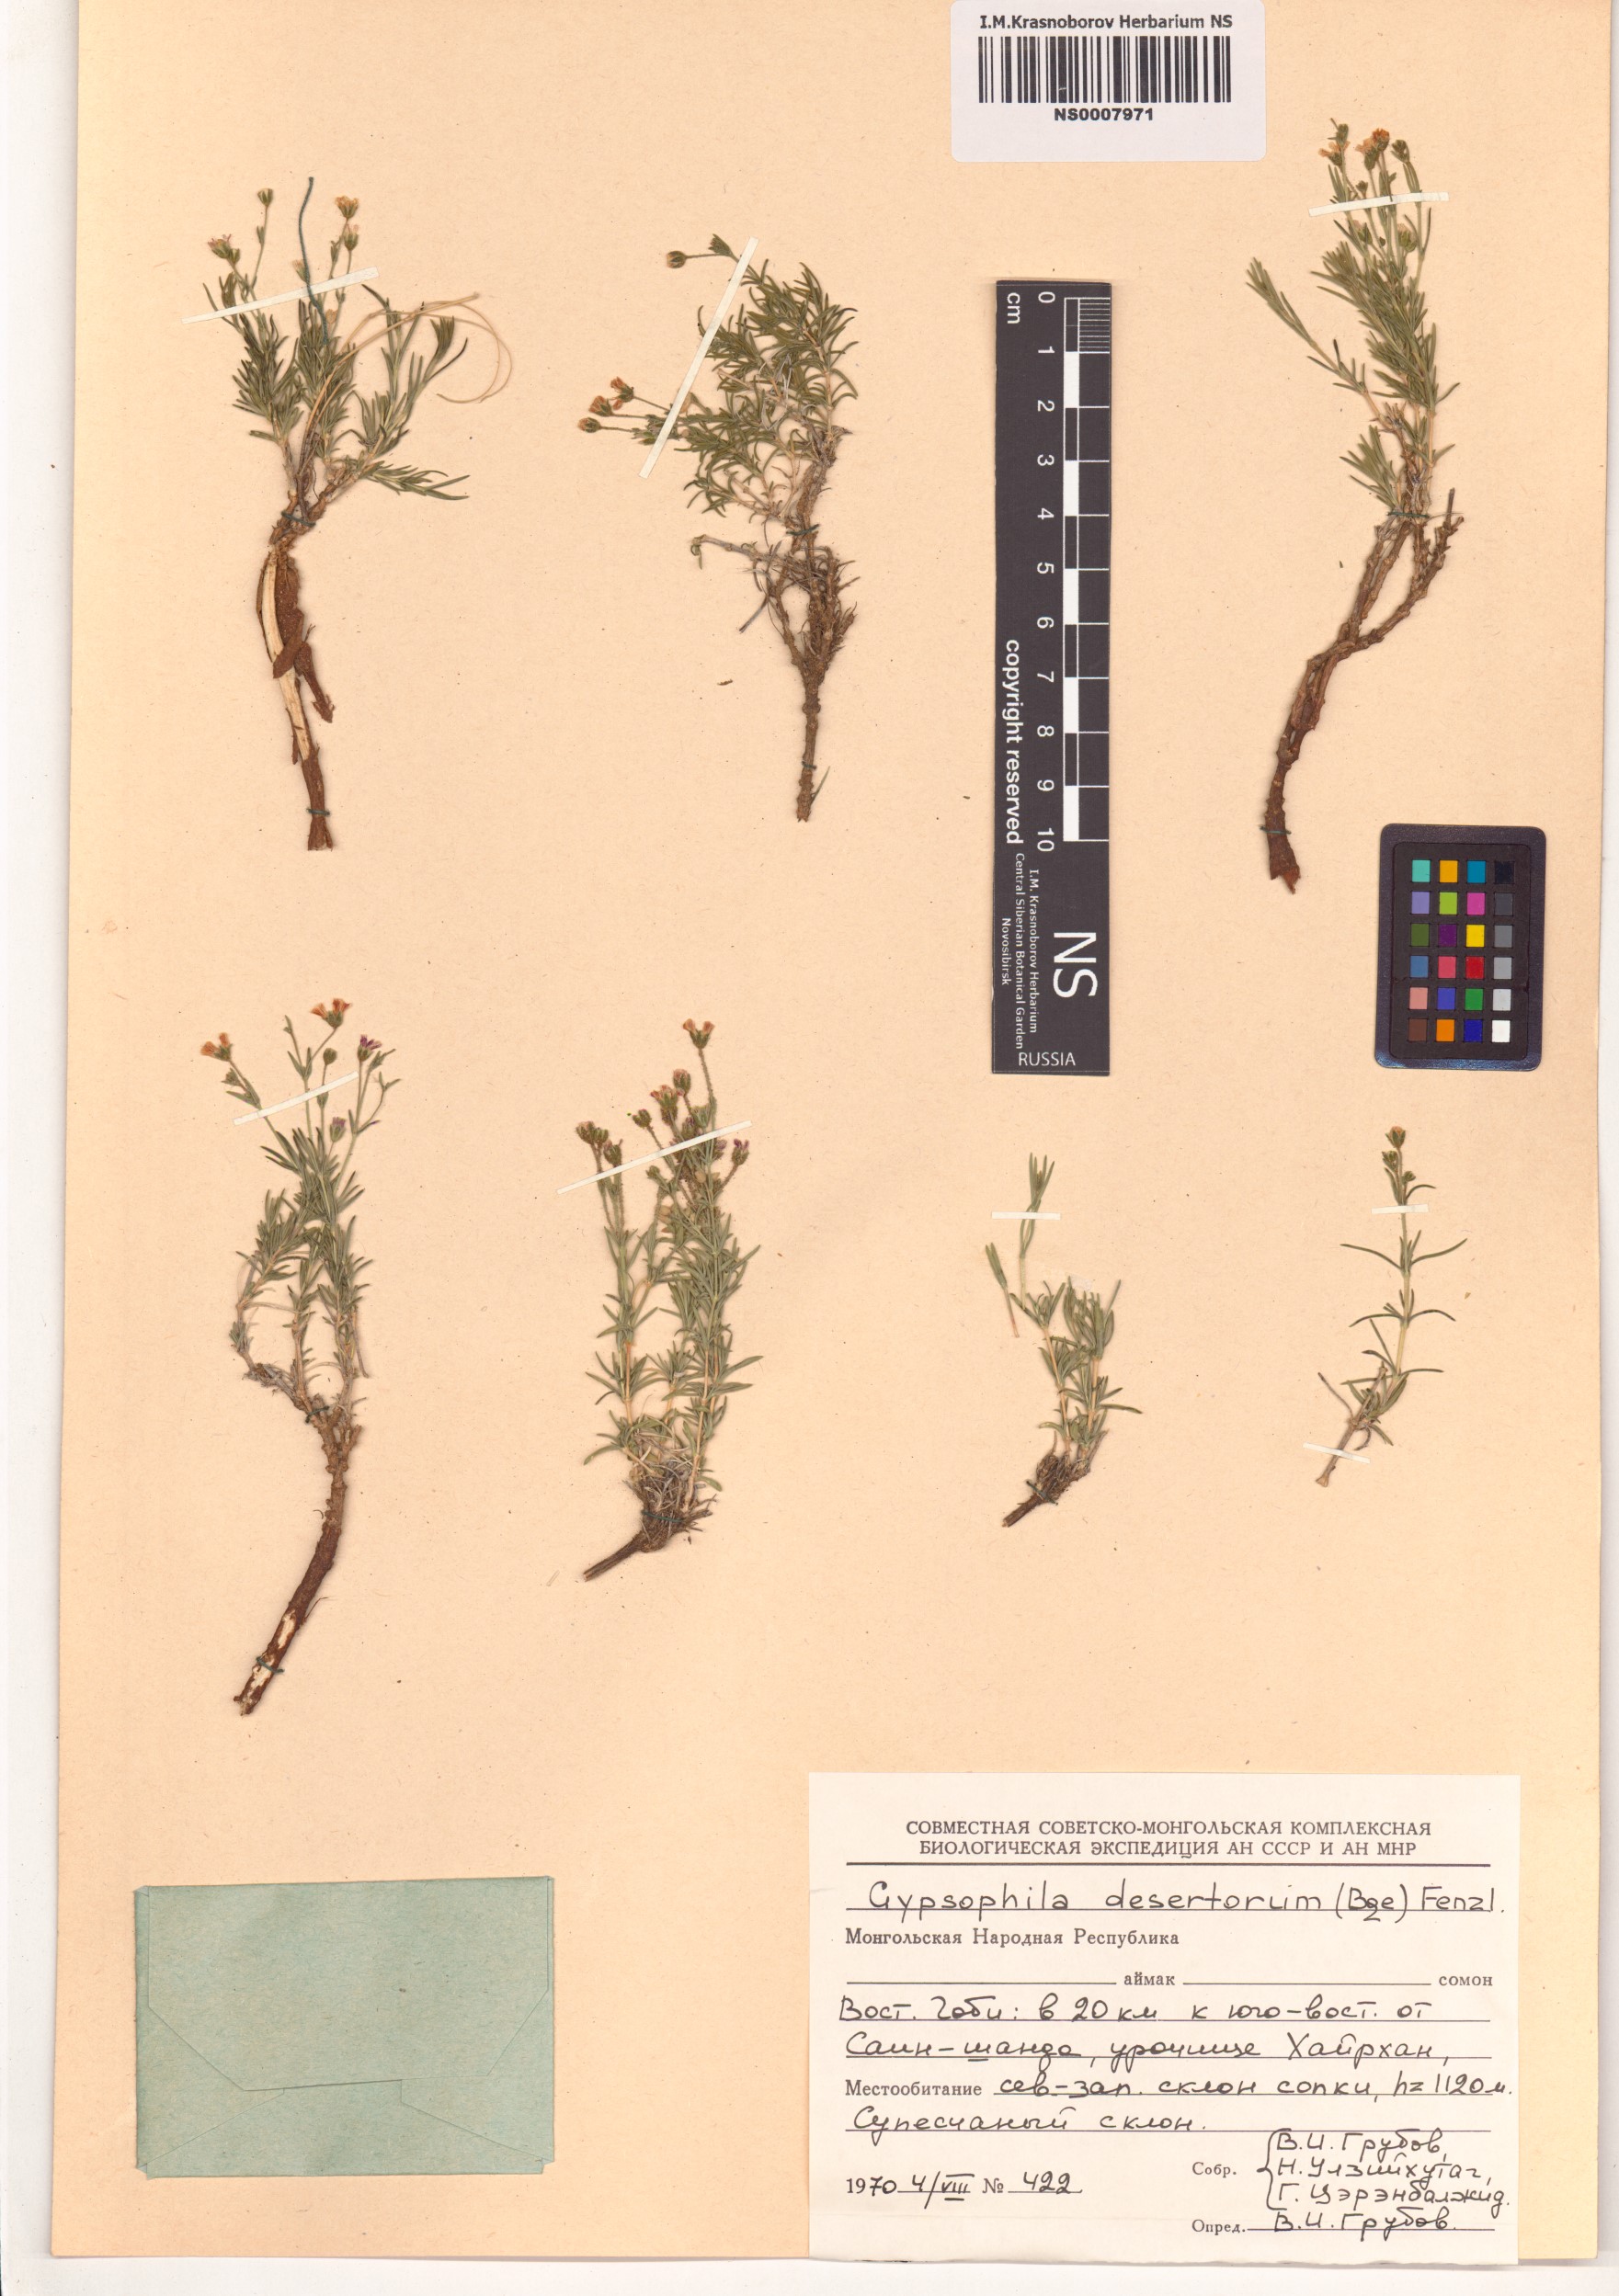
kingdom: Plantae
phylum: Tracheophyta
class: Magnoliopsida
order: Caryophyllales
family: Caryophyllaceae
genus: Heterochroa
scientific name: Heterochroa desertorum
